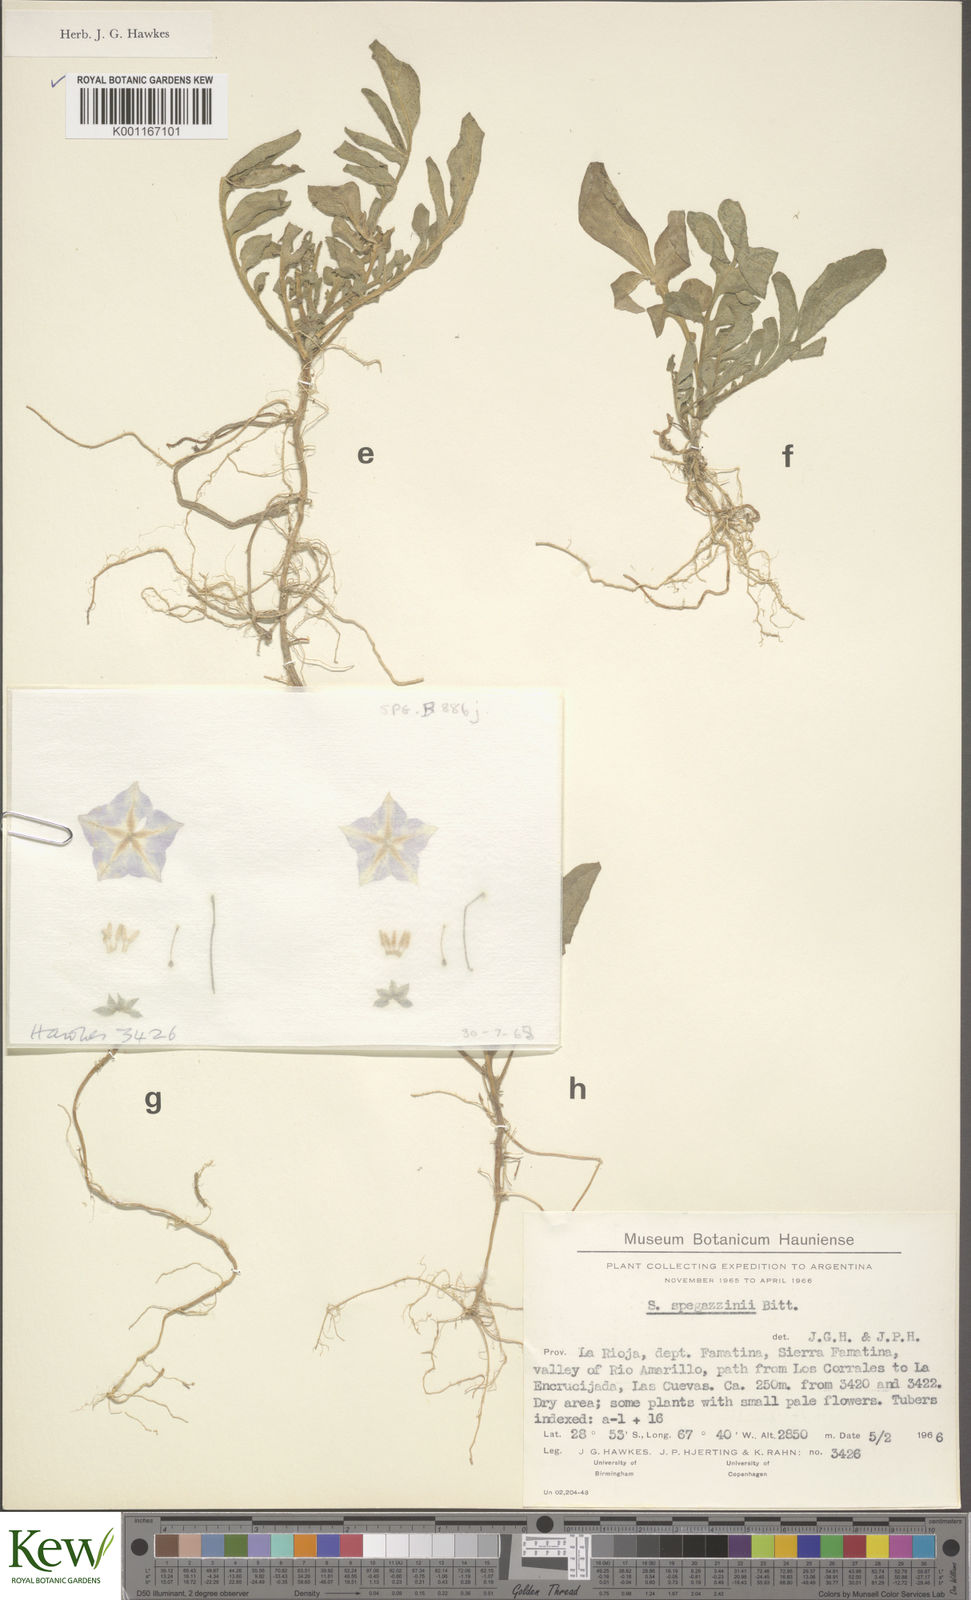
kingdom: Plantae
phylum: Tracheophyta
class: Magnoliopsida
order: Solanales
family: Solanaceae
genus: Solanum
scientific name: Solanum brevicaule
